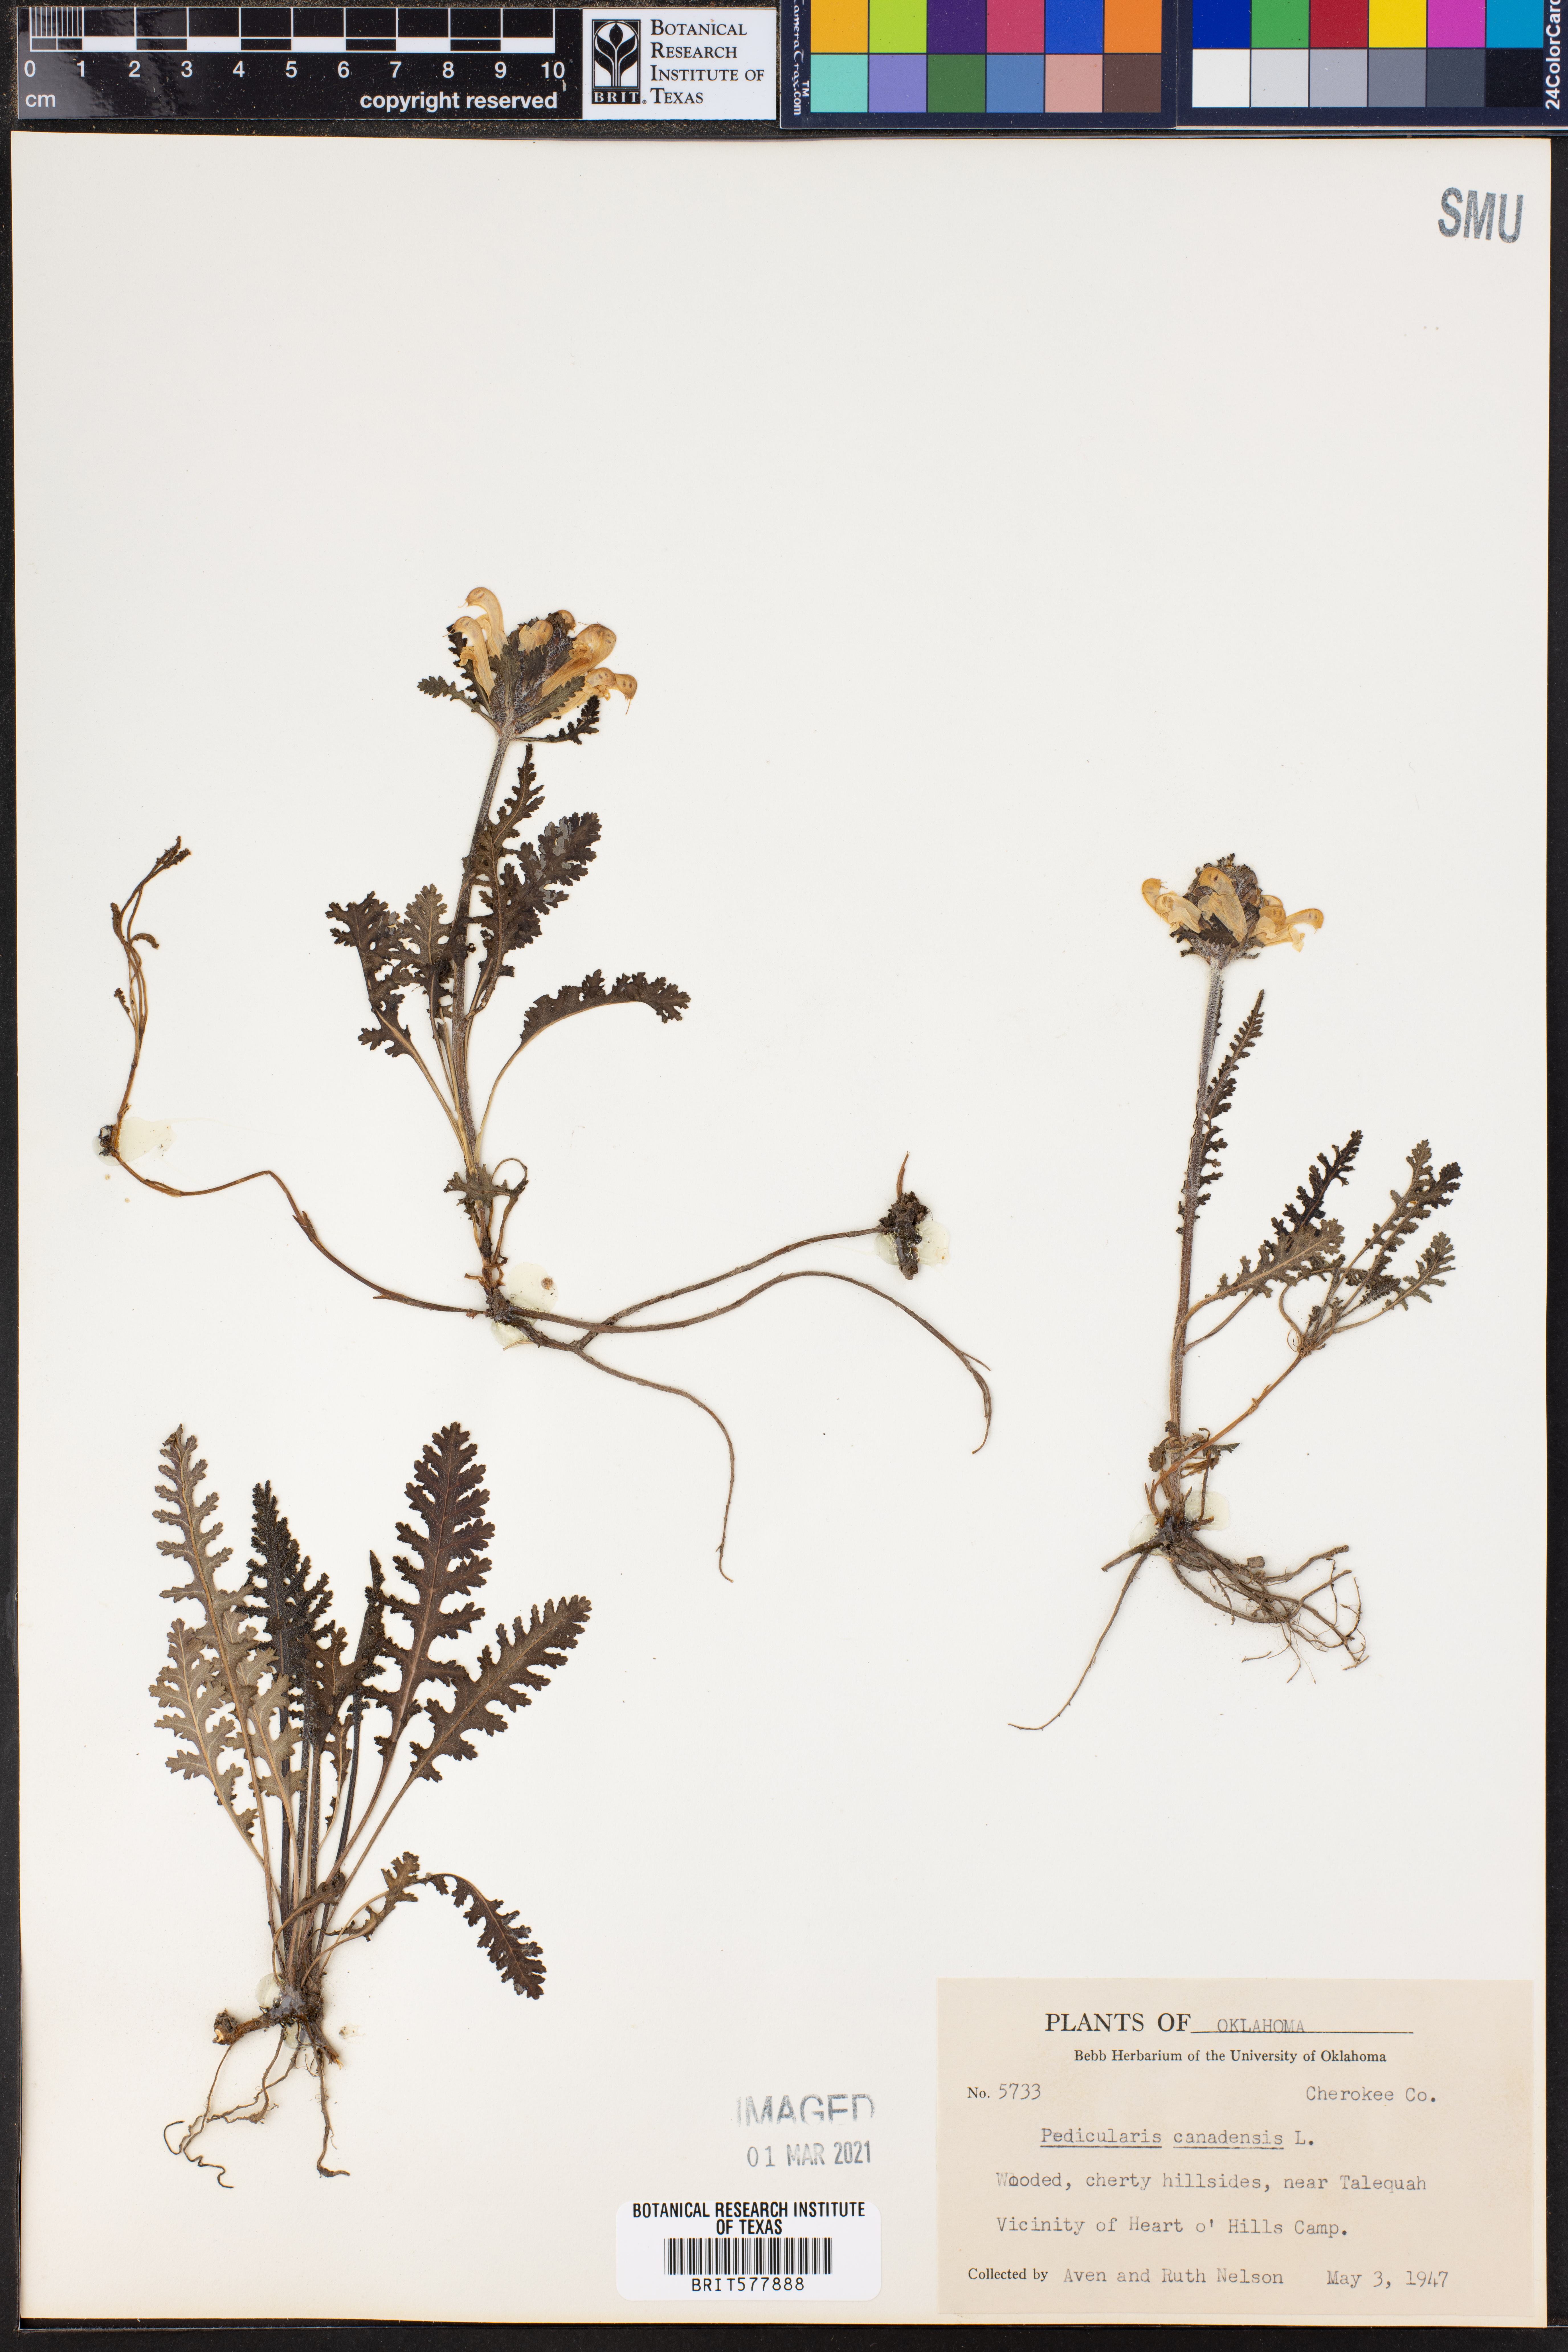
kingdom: Plantae
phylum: Tracheophyta
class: Magnoliopsida
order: Lamiales
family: Orobanchaceae
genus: Pedicularis
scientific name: Pedicularis canadensis
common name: Early lousewort
